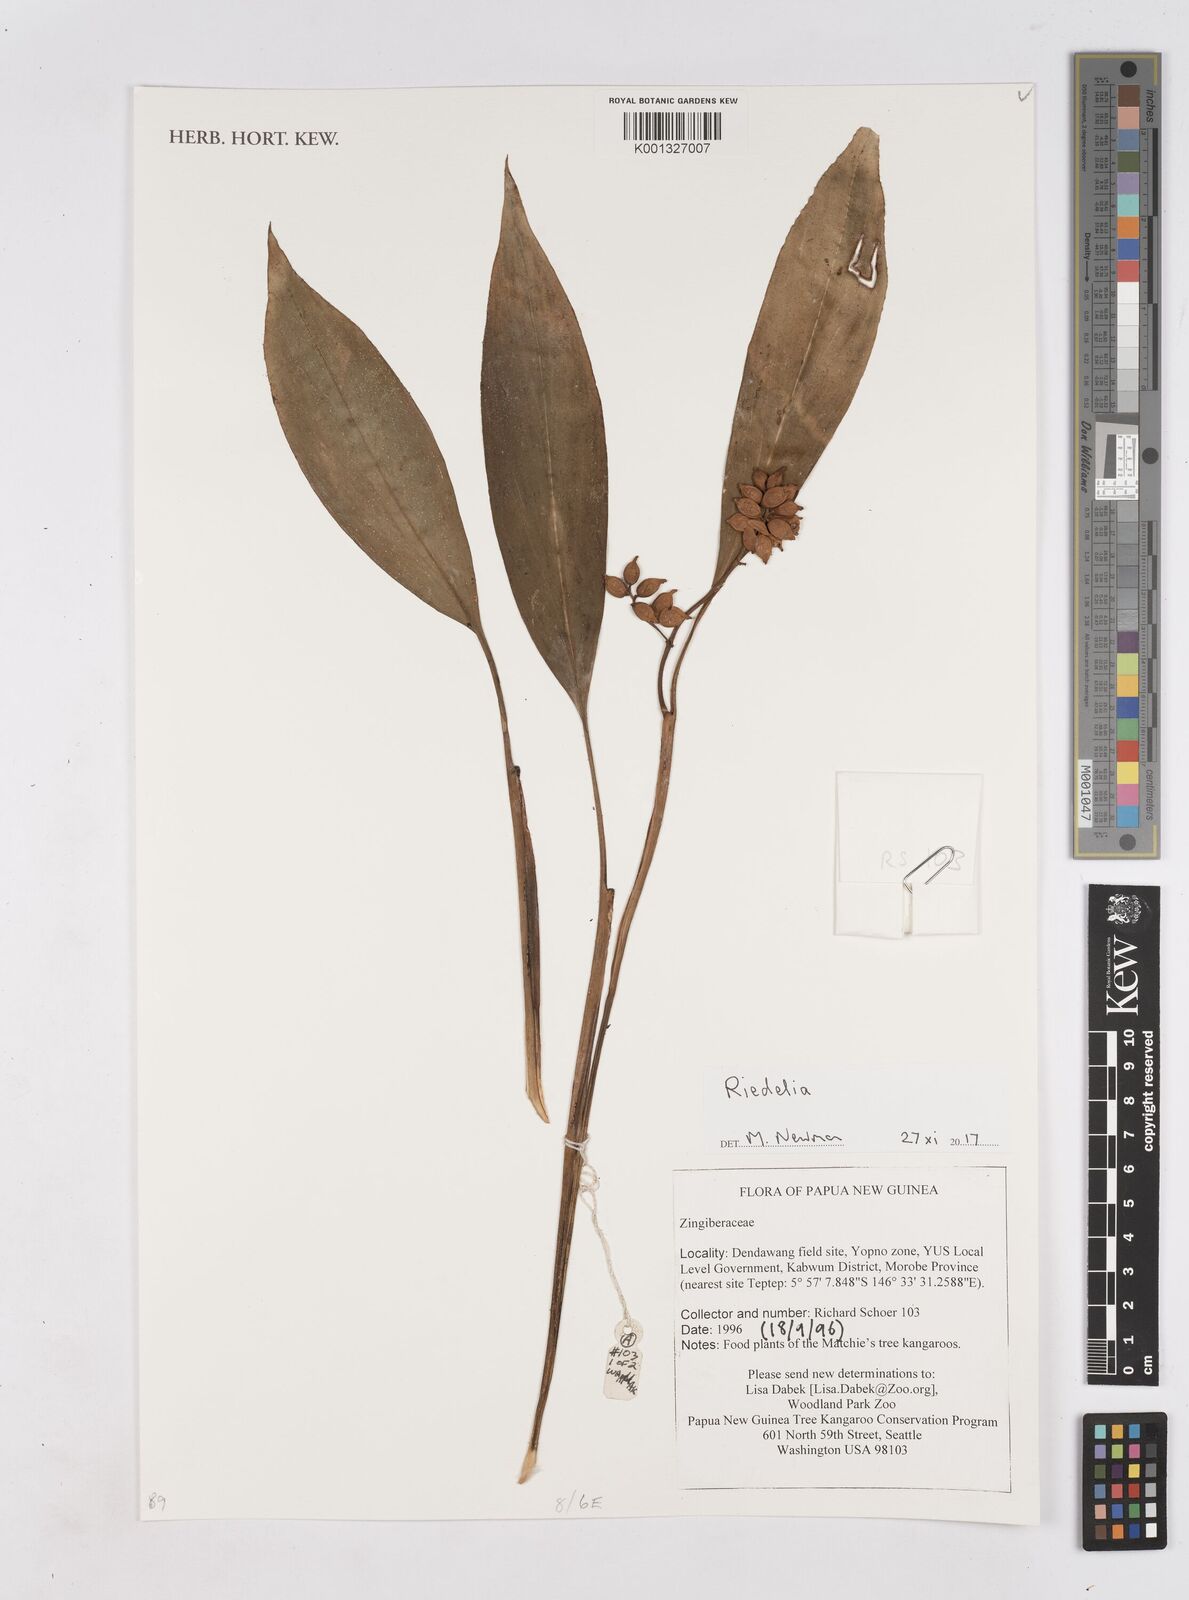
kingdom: Plantae
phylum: Tracheophyta
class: Liliopsida
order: Zingiberales
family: Zingiberaceae
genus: Riedelia
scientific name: Riedelia
